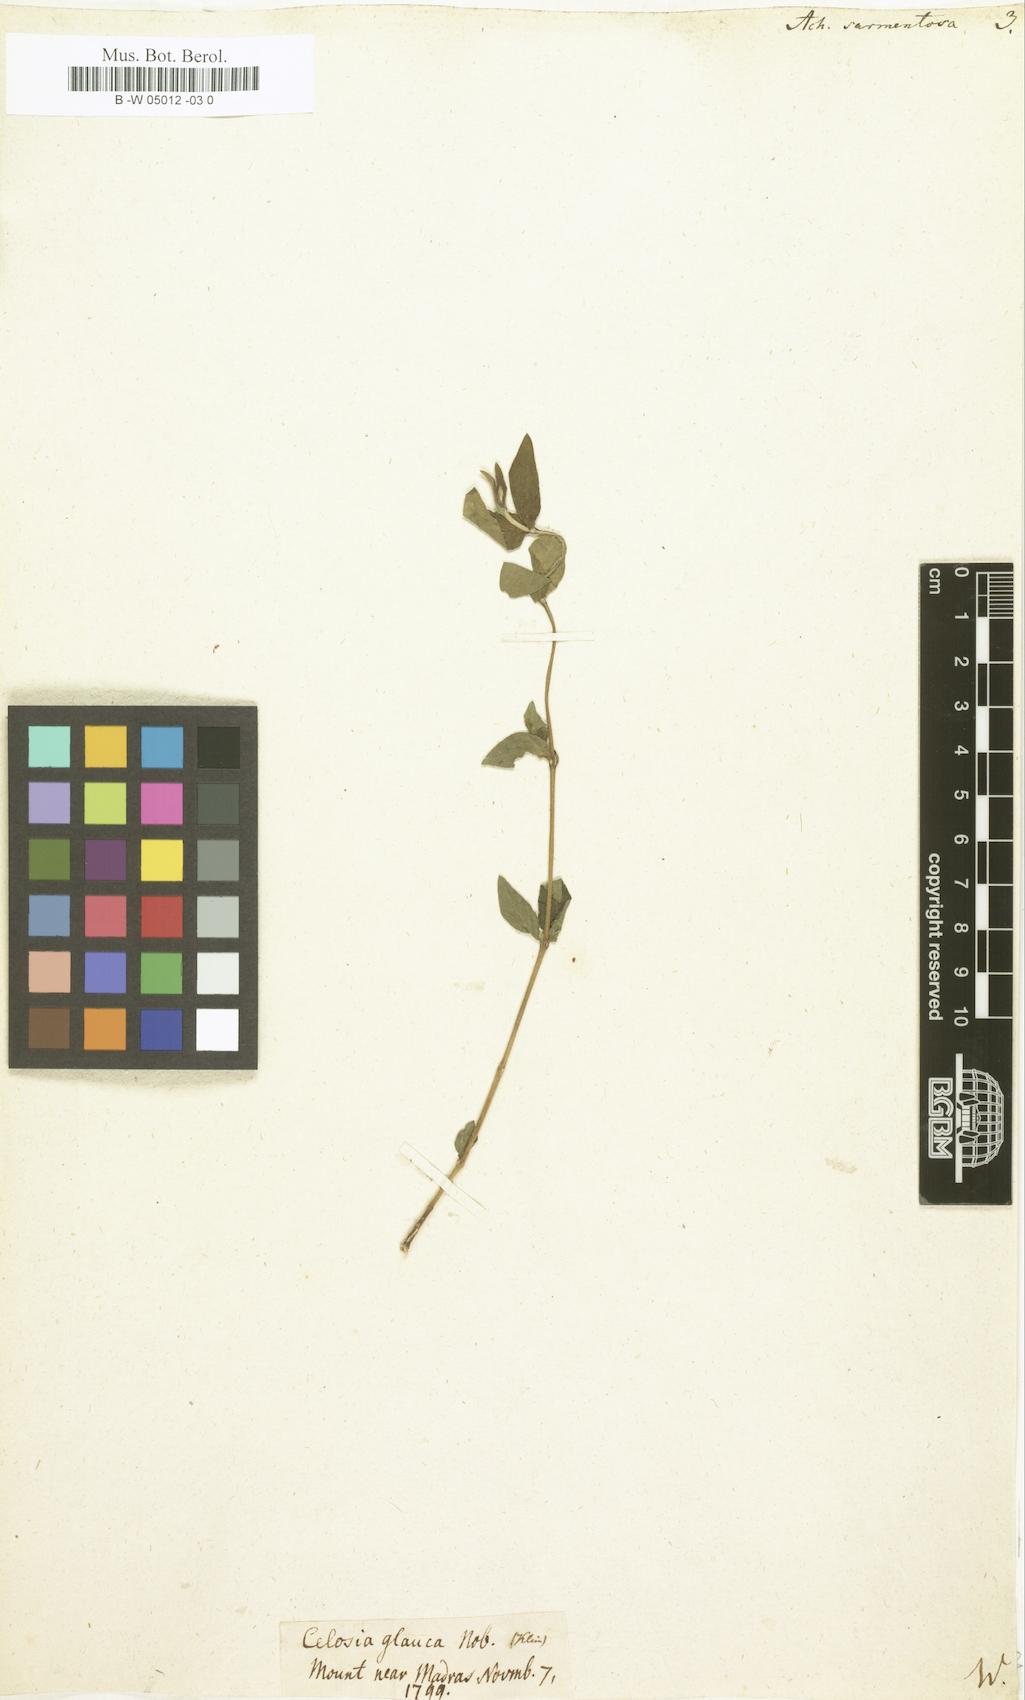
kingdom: Plantae
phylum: Tracheophyta
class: Magnoliopsida
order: Caryophyllales
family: Amaranthaceae
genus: Achyranthes
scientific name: Achyranthes sarmentosa
